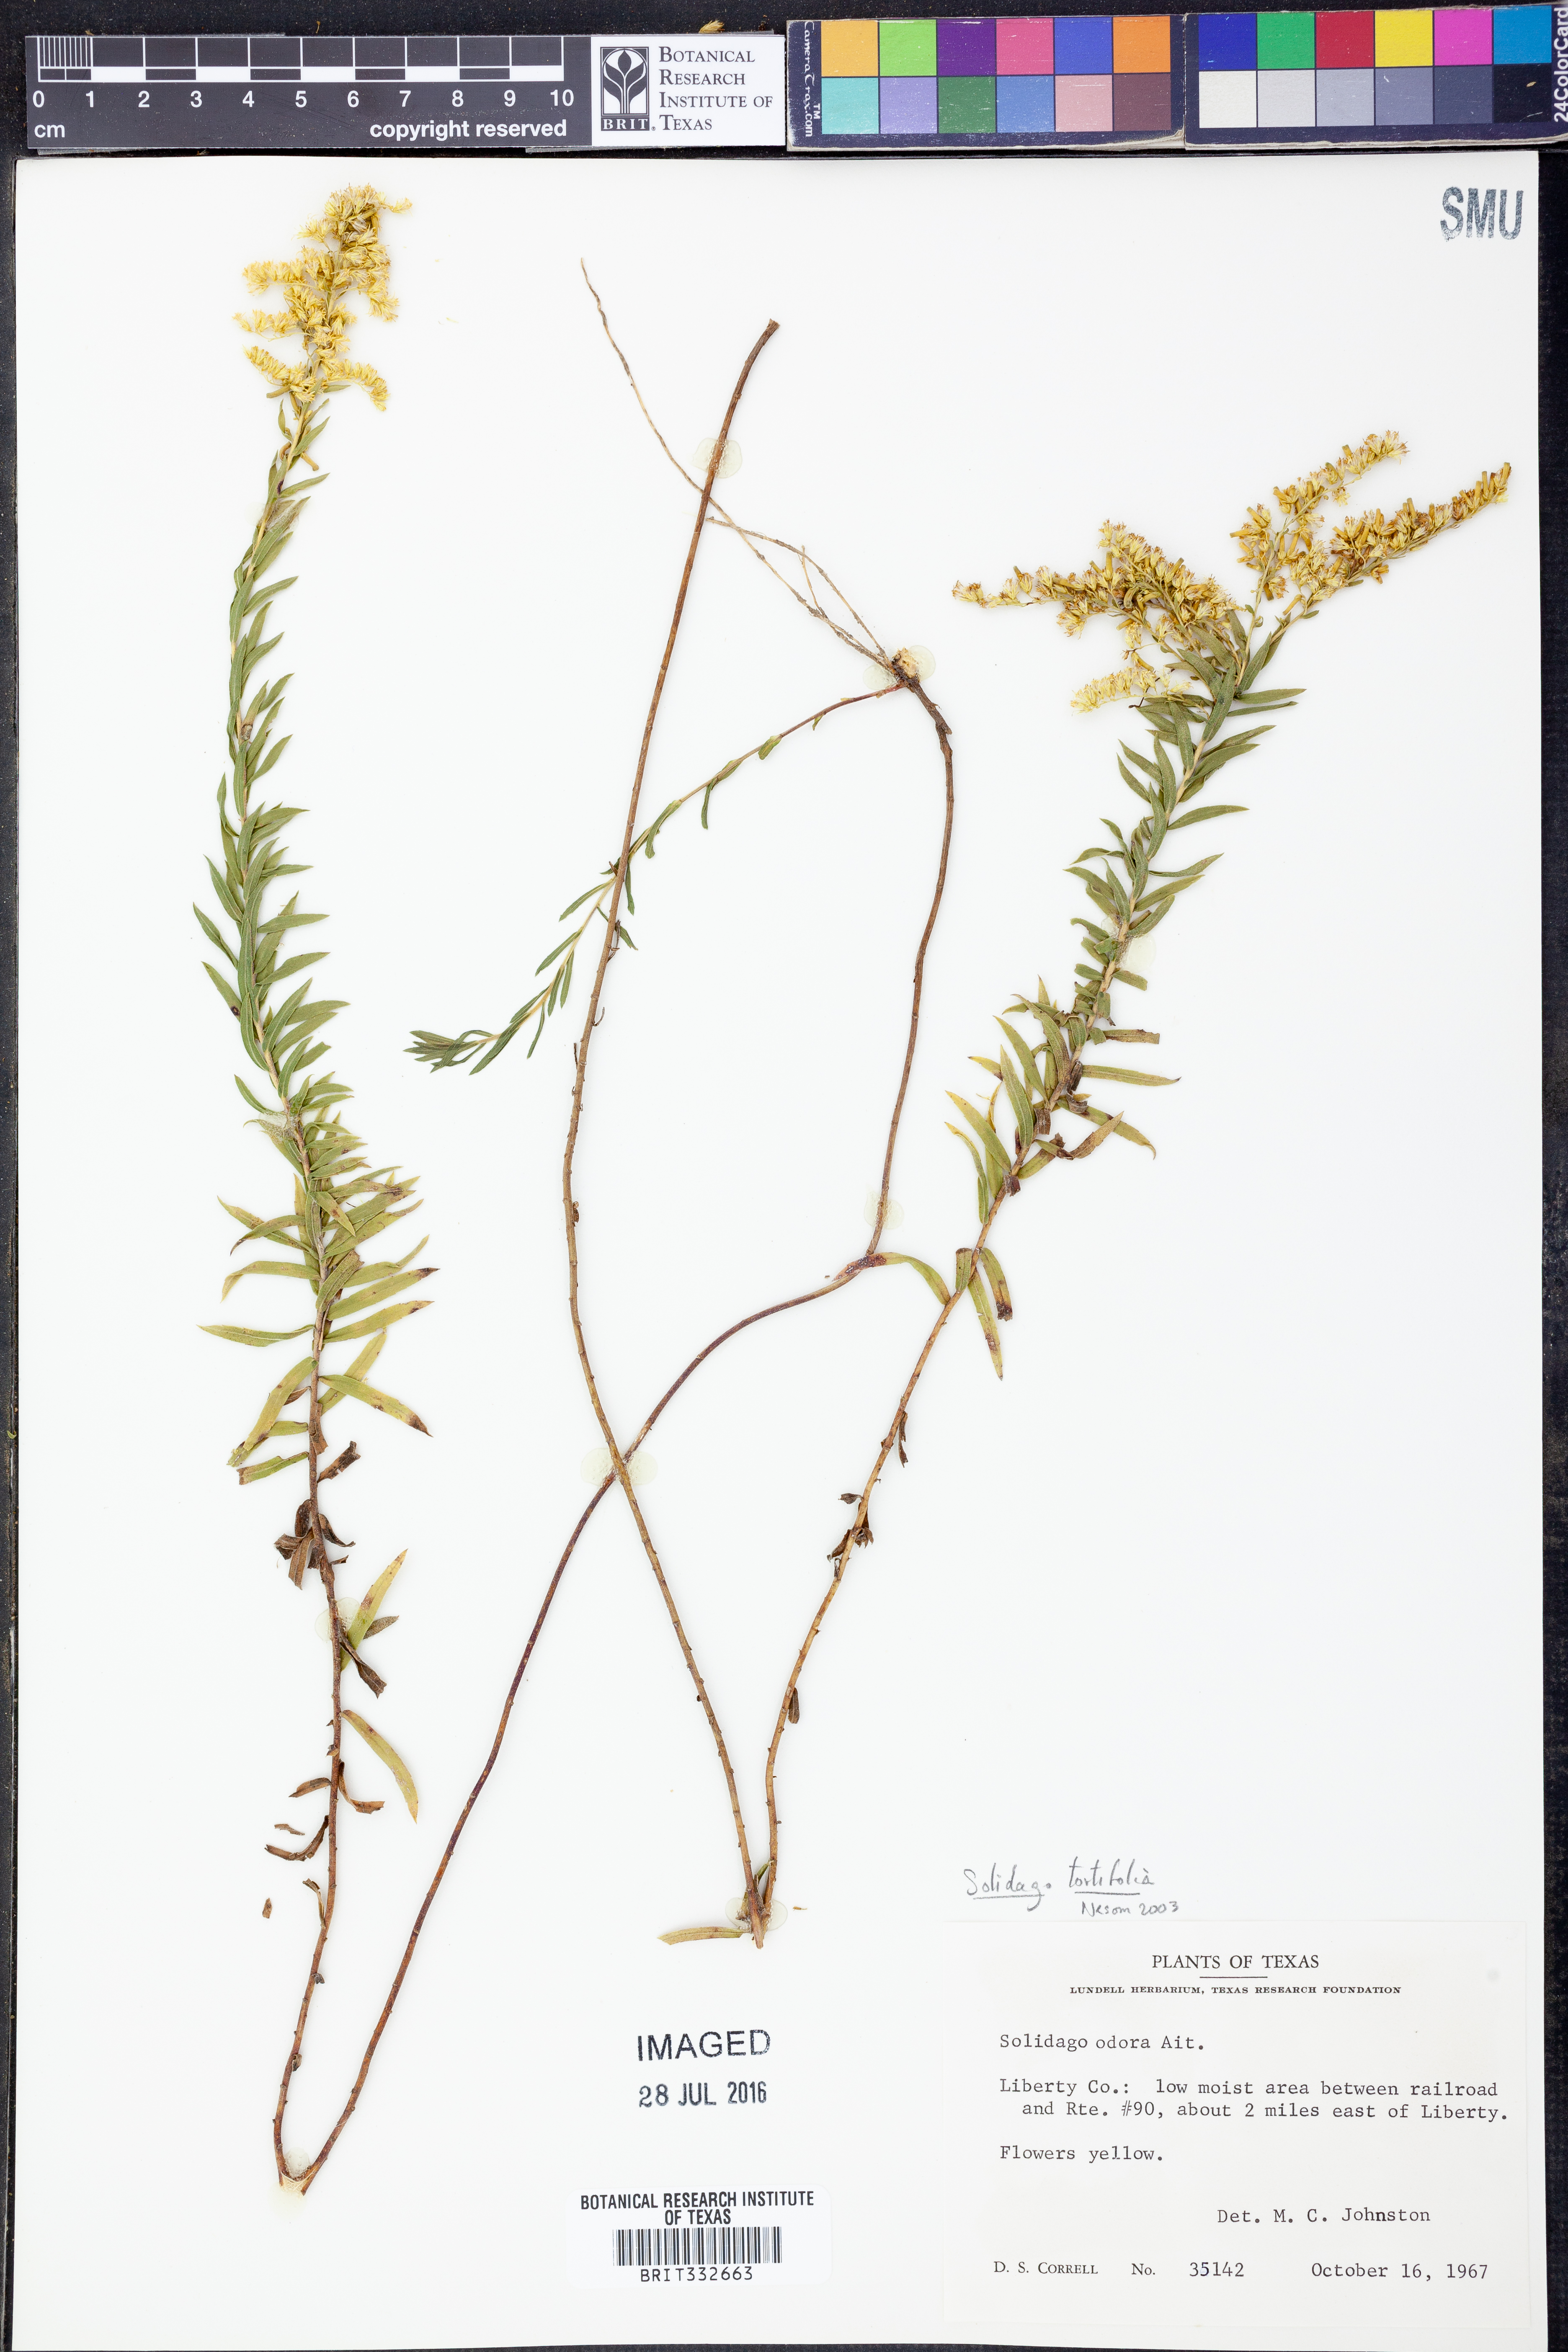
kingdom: Plantae
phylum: Tracheophyta
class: Magnoliopsida
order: Asterales
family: Asteraceae
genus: Solidago
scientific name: Solidago tortifolia
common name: Twisted-leaf goldenrod
